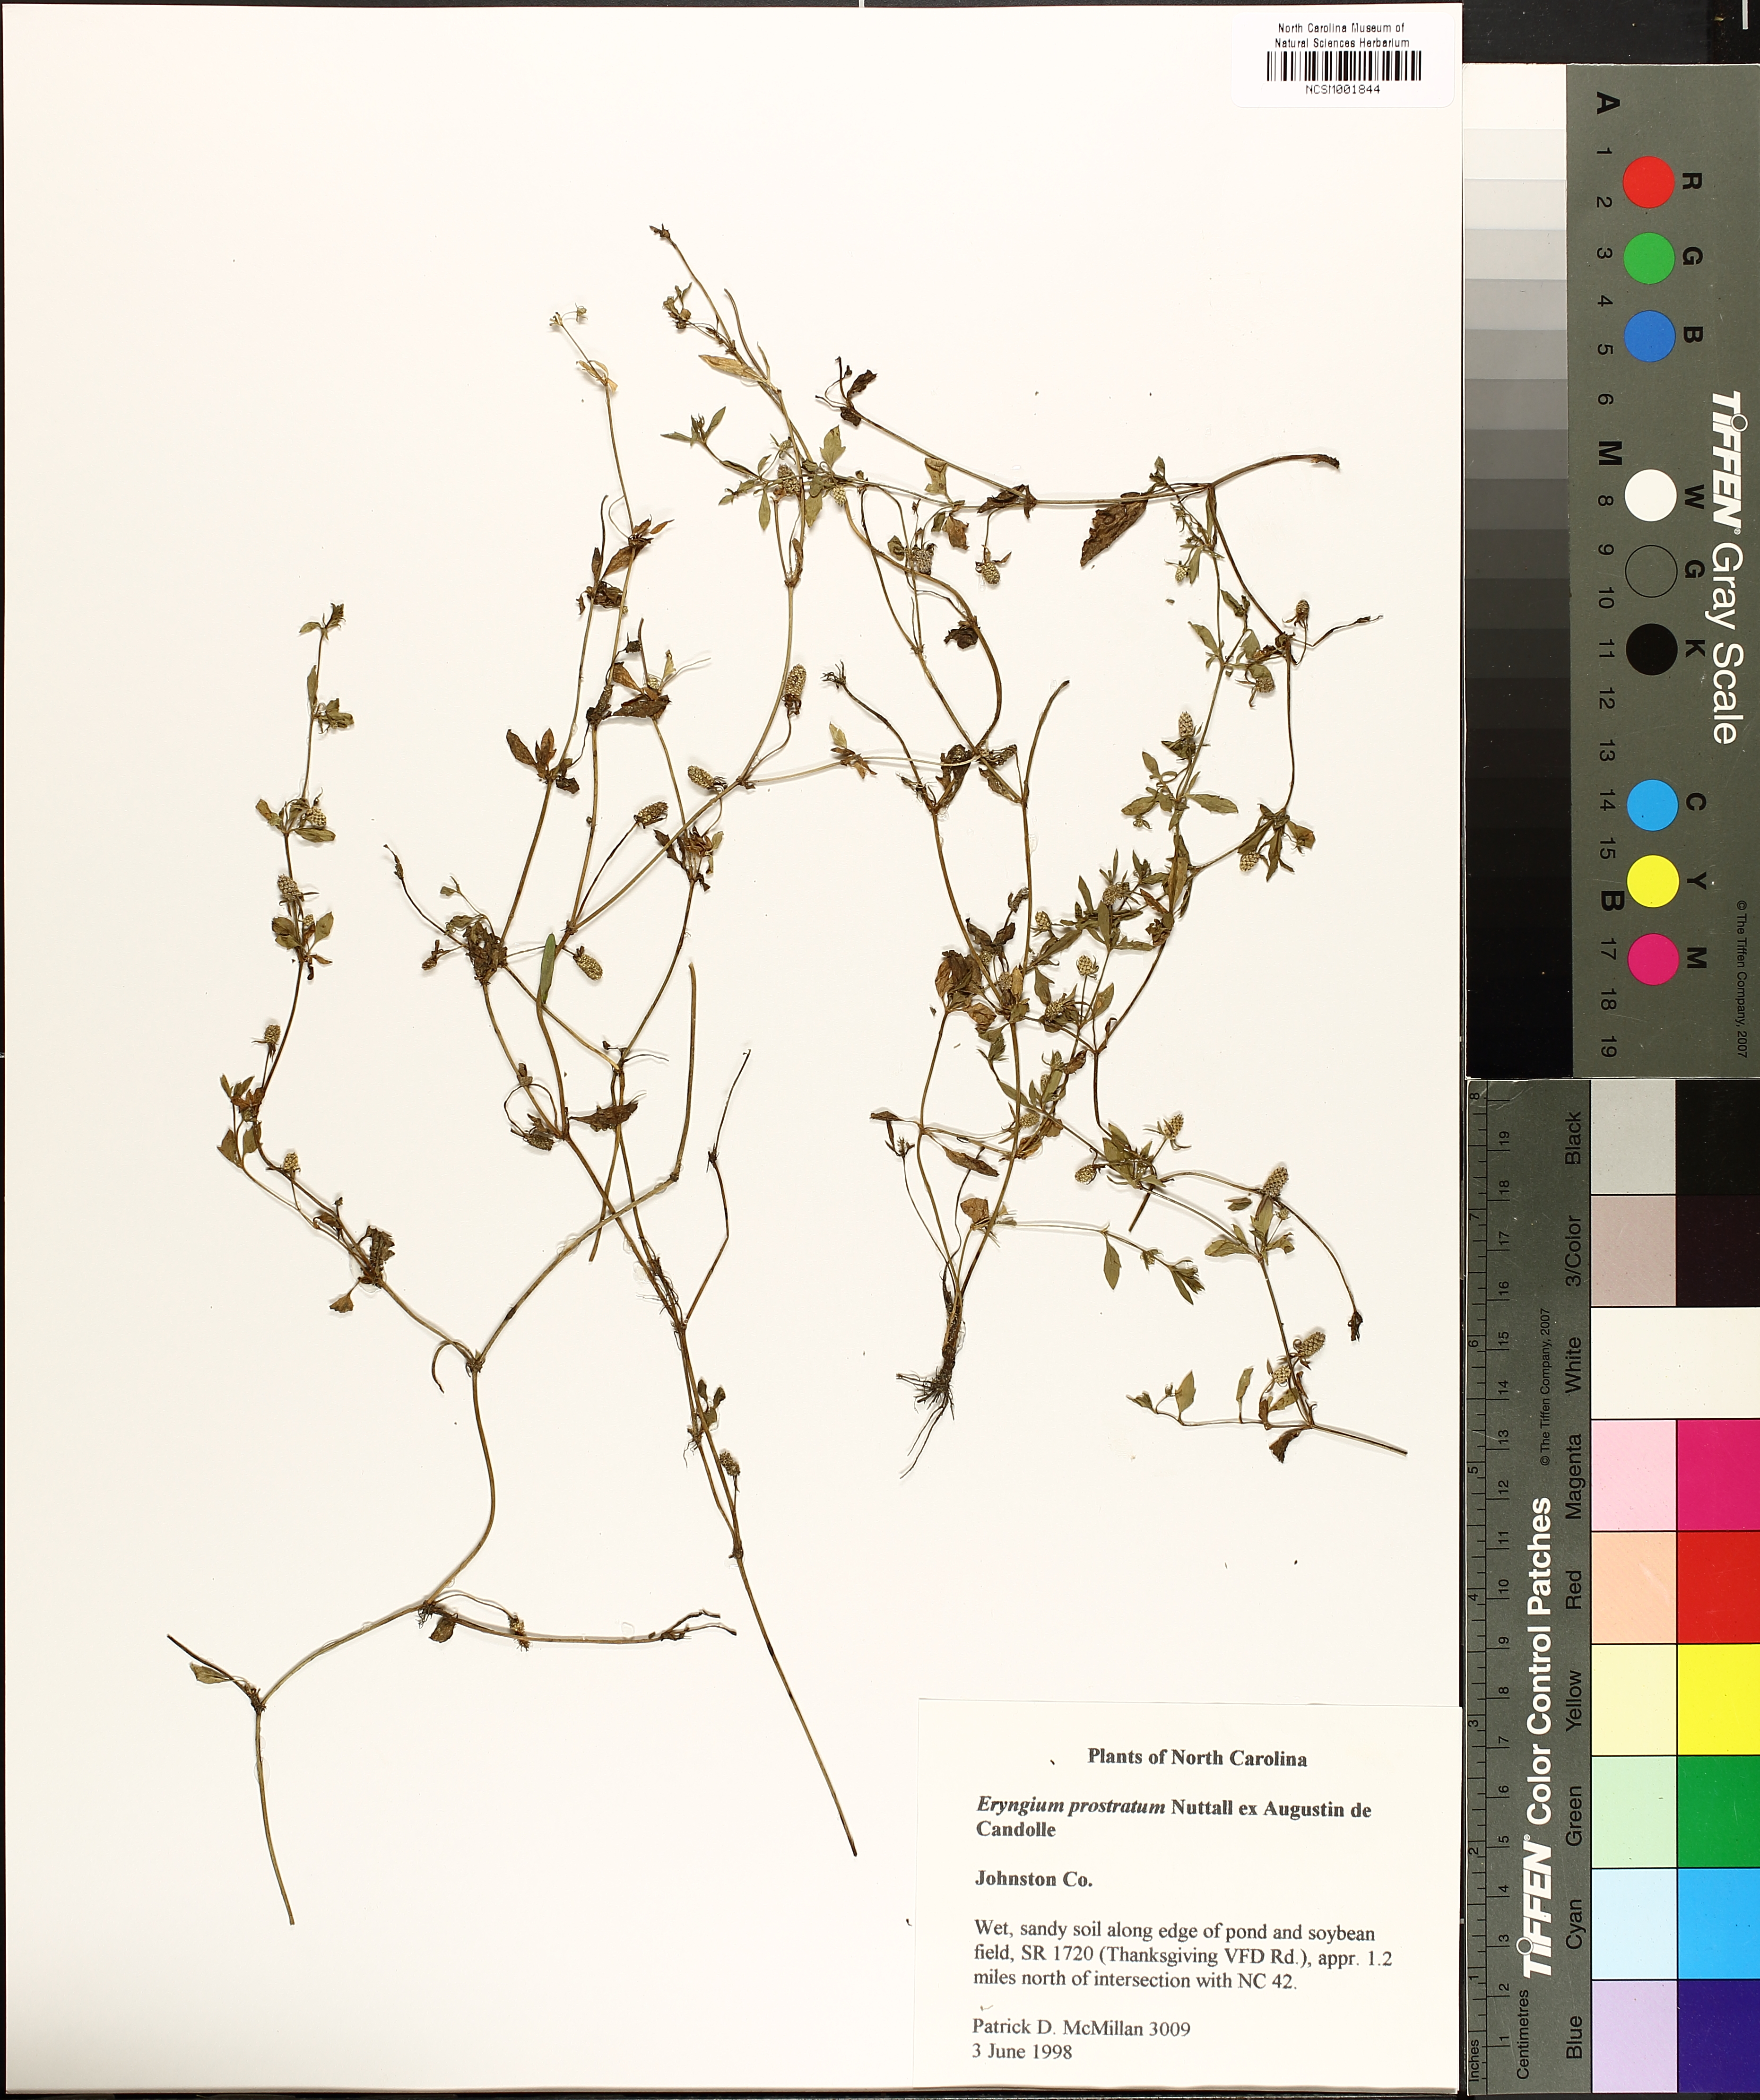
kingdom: Plantae
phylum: Tracheophyta
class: Magnoliopsida
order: Apiales
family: Apiaceae
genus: Eryngium
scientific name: Eryngium prostratum
